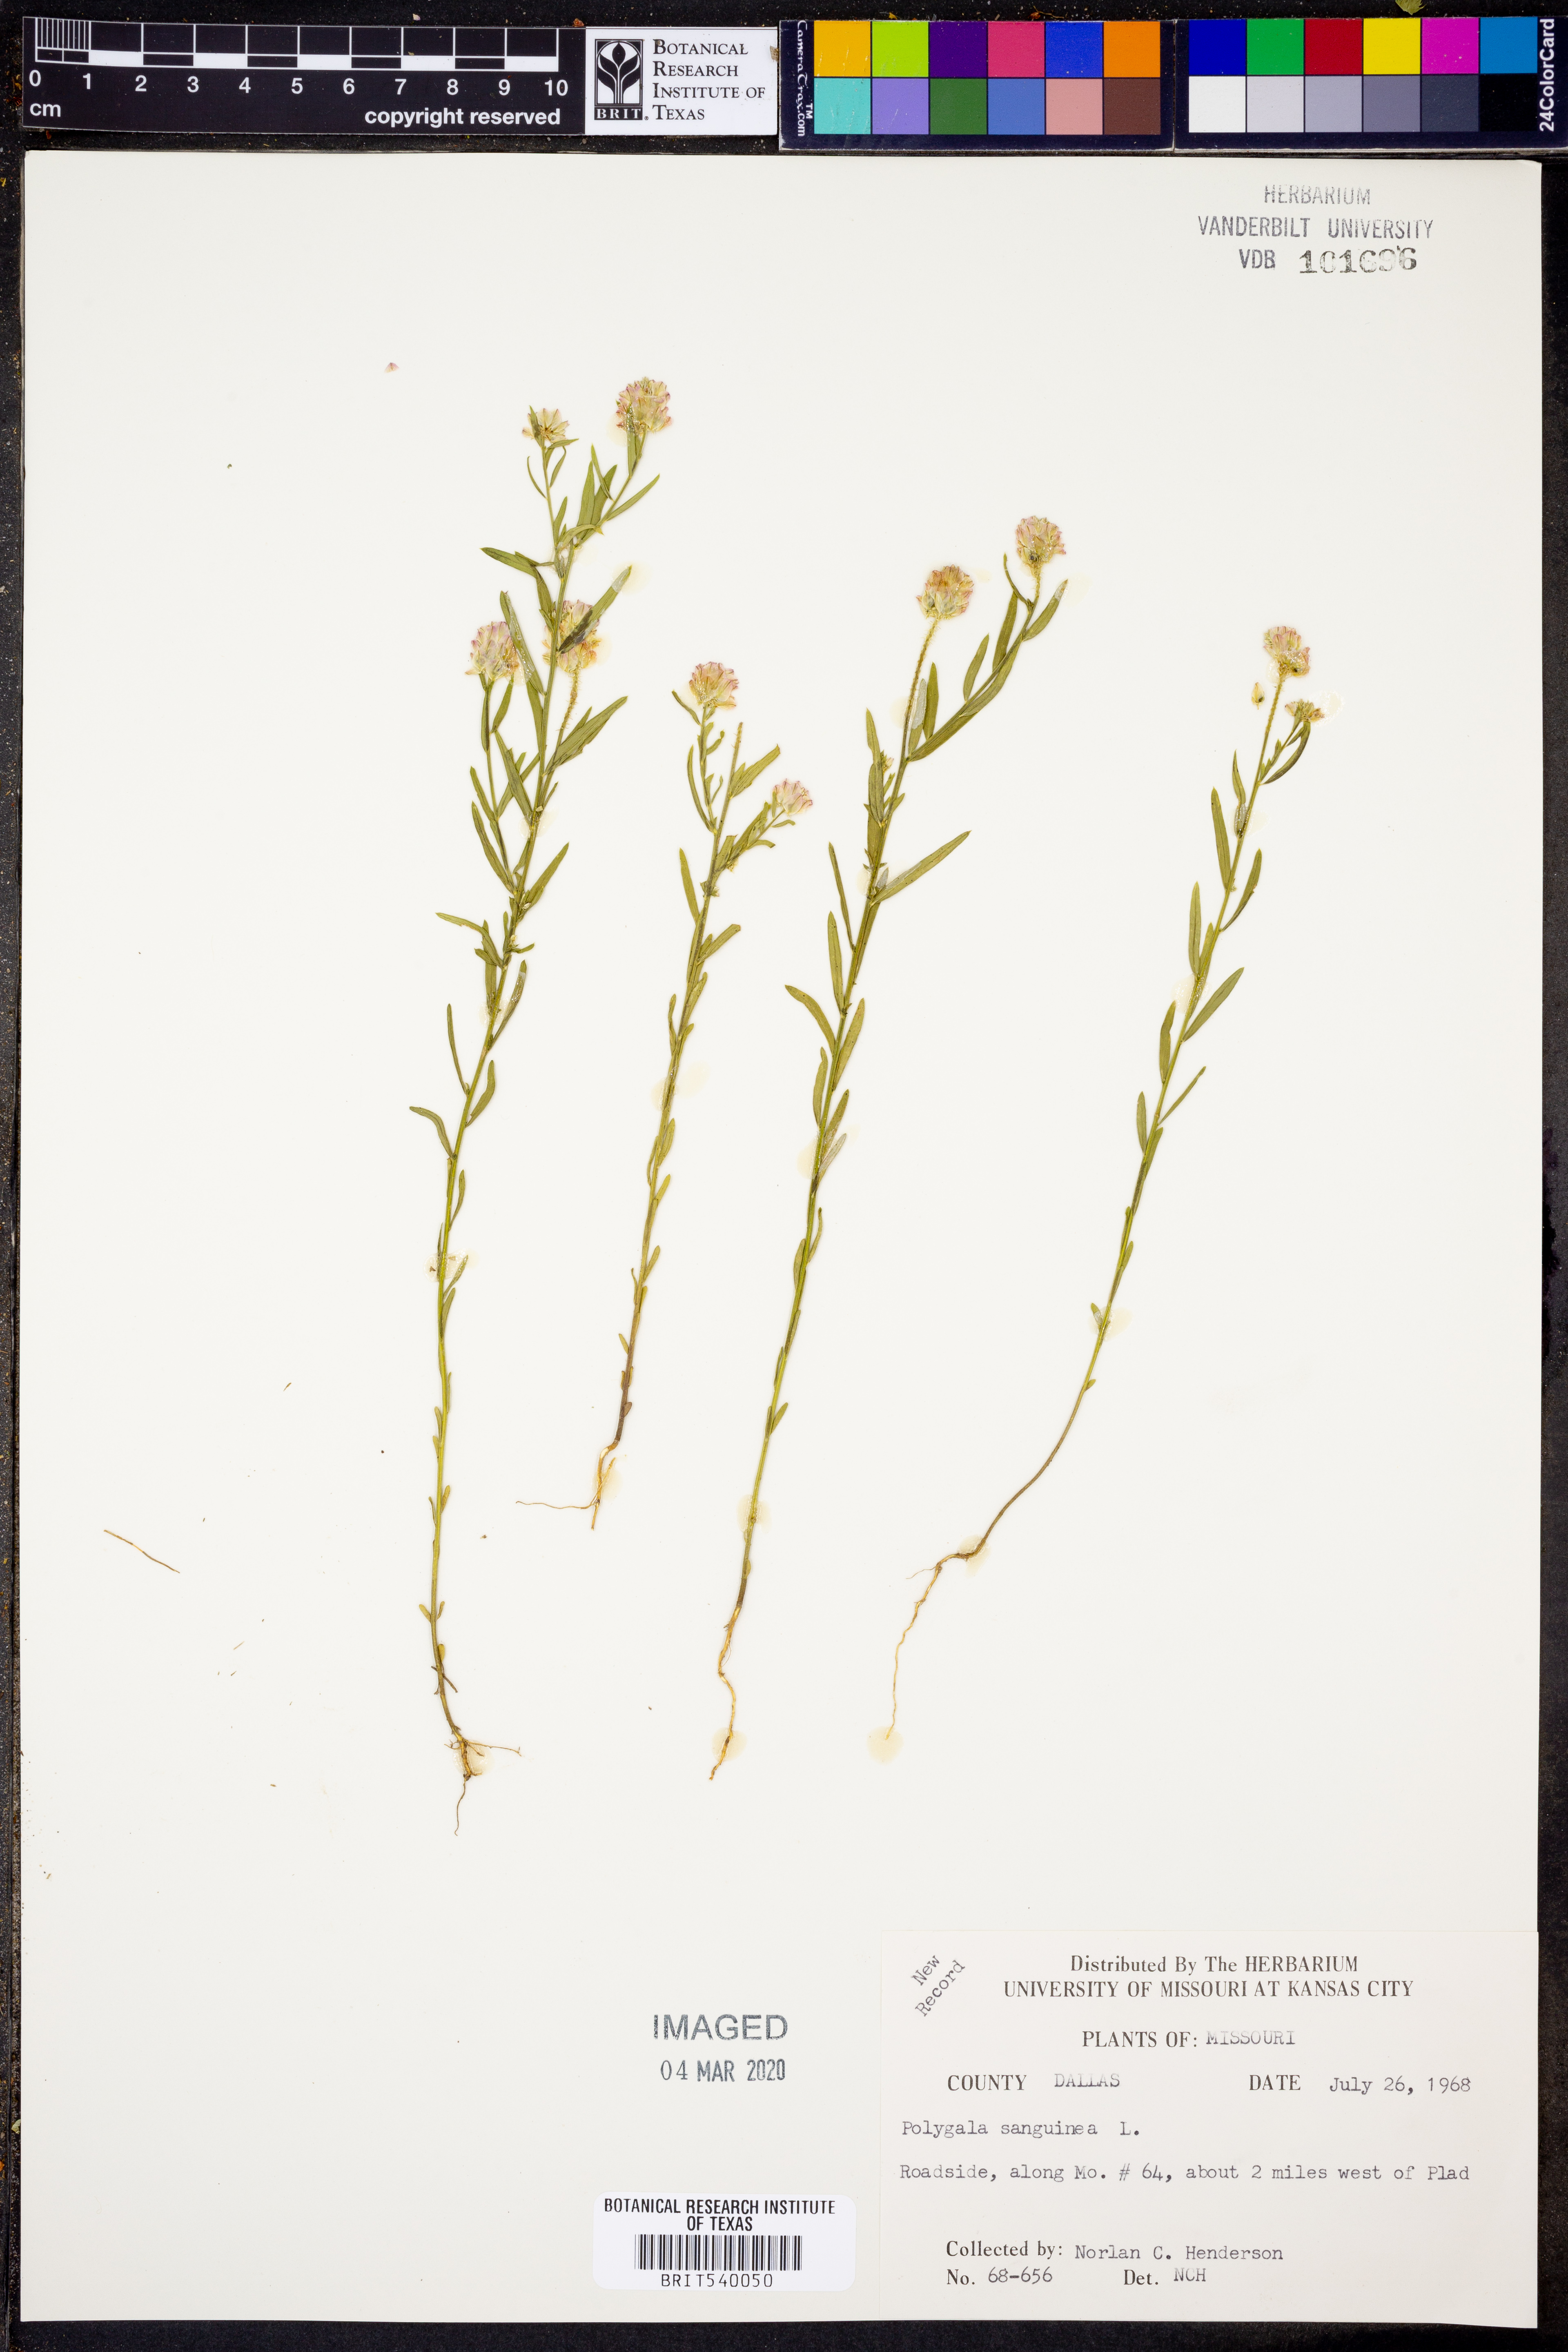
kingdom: Plantae
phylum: Tracheophyta
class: Magnoliopsida
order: Fabales
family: Polygalaceae
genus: Polygala
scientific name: Polygala sanguinea
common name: Blood milkwort
